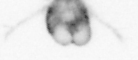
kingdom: Animalia
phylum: Arthropoda
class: Copepoda
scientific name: Copepoda
